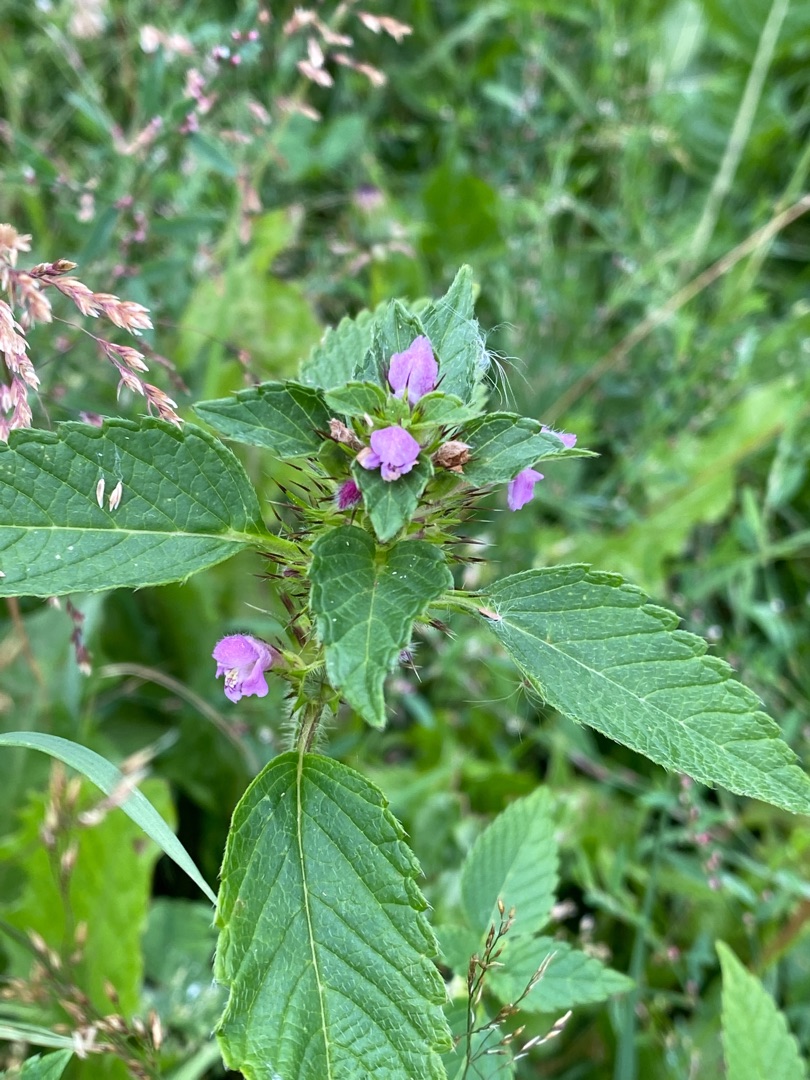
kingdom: Plantae
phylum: Tracheophyta
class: Magnoliopsida
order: Lamiales
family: Lamiaceae
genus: Galeopsis
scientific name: Galeopsis tetrahit
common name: Almindelig hanekro
